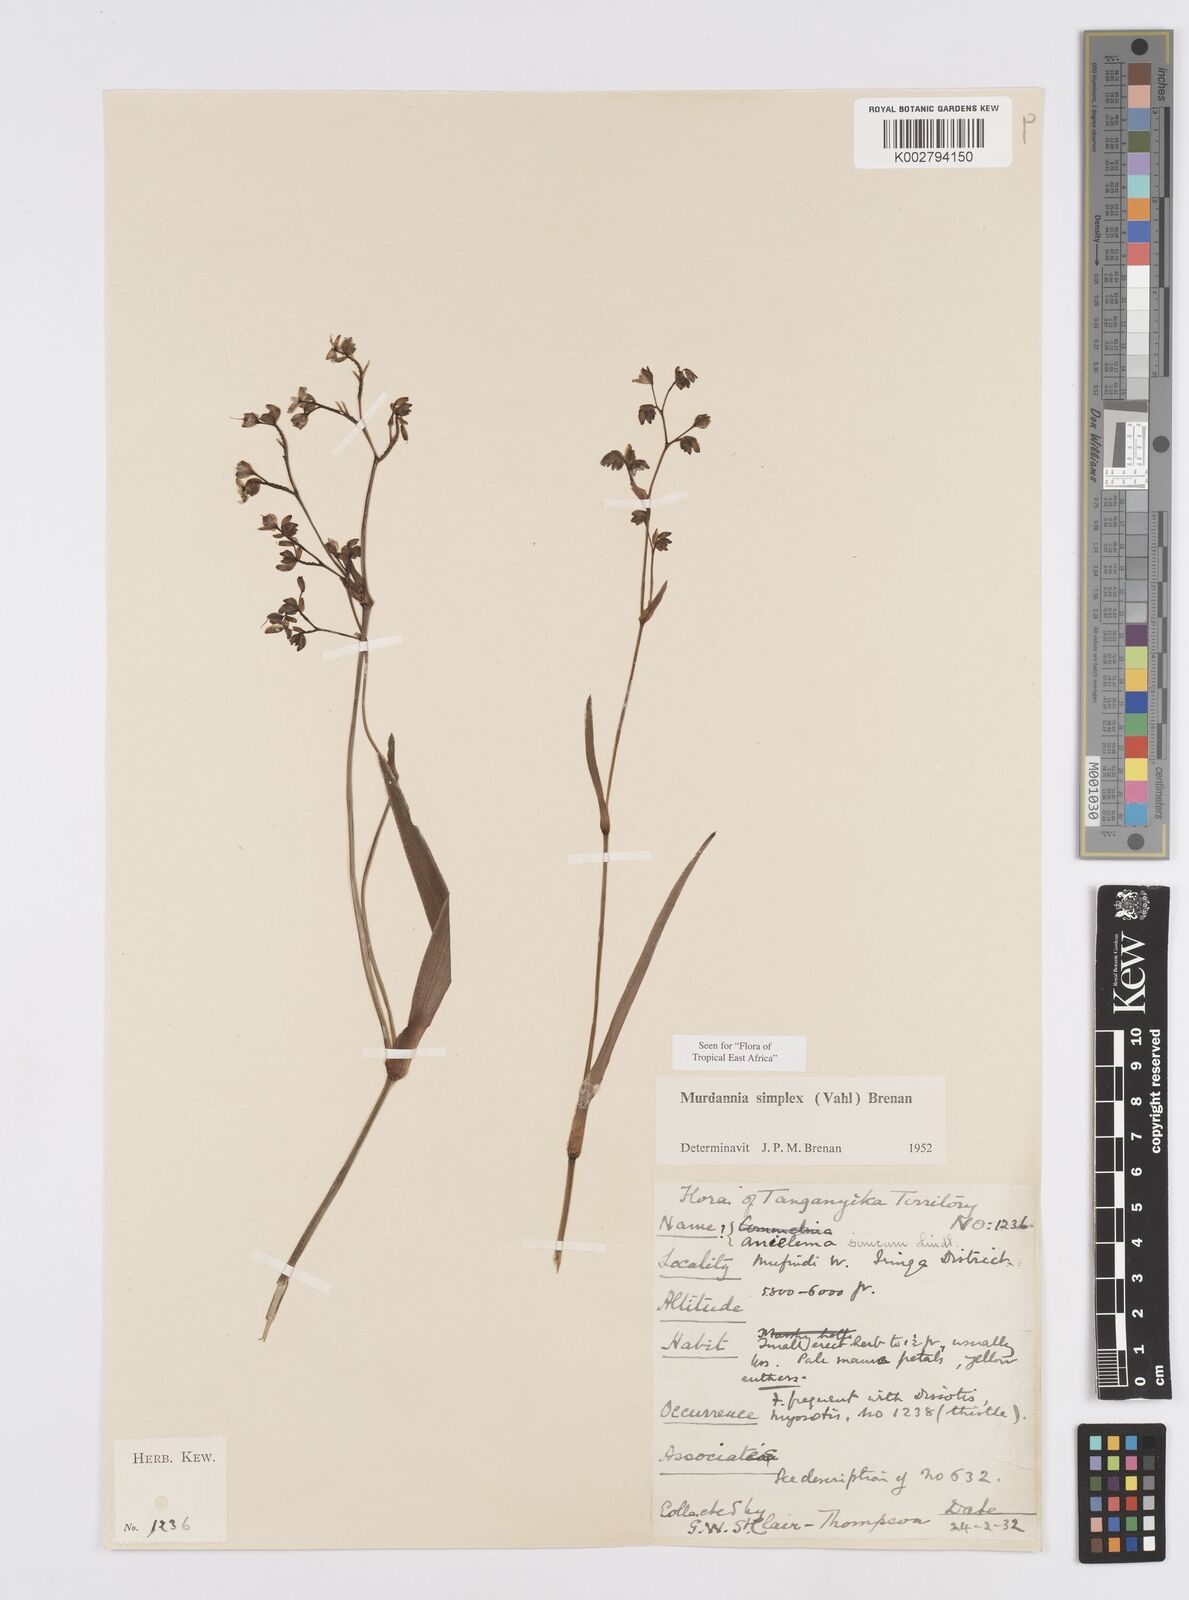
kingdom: Plantae
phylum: Tracheophyta
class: Liliopsida
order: Commelinales
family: Commelinaceae
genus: Murdannia
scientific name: Murdannia simplex
